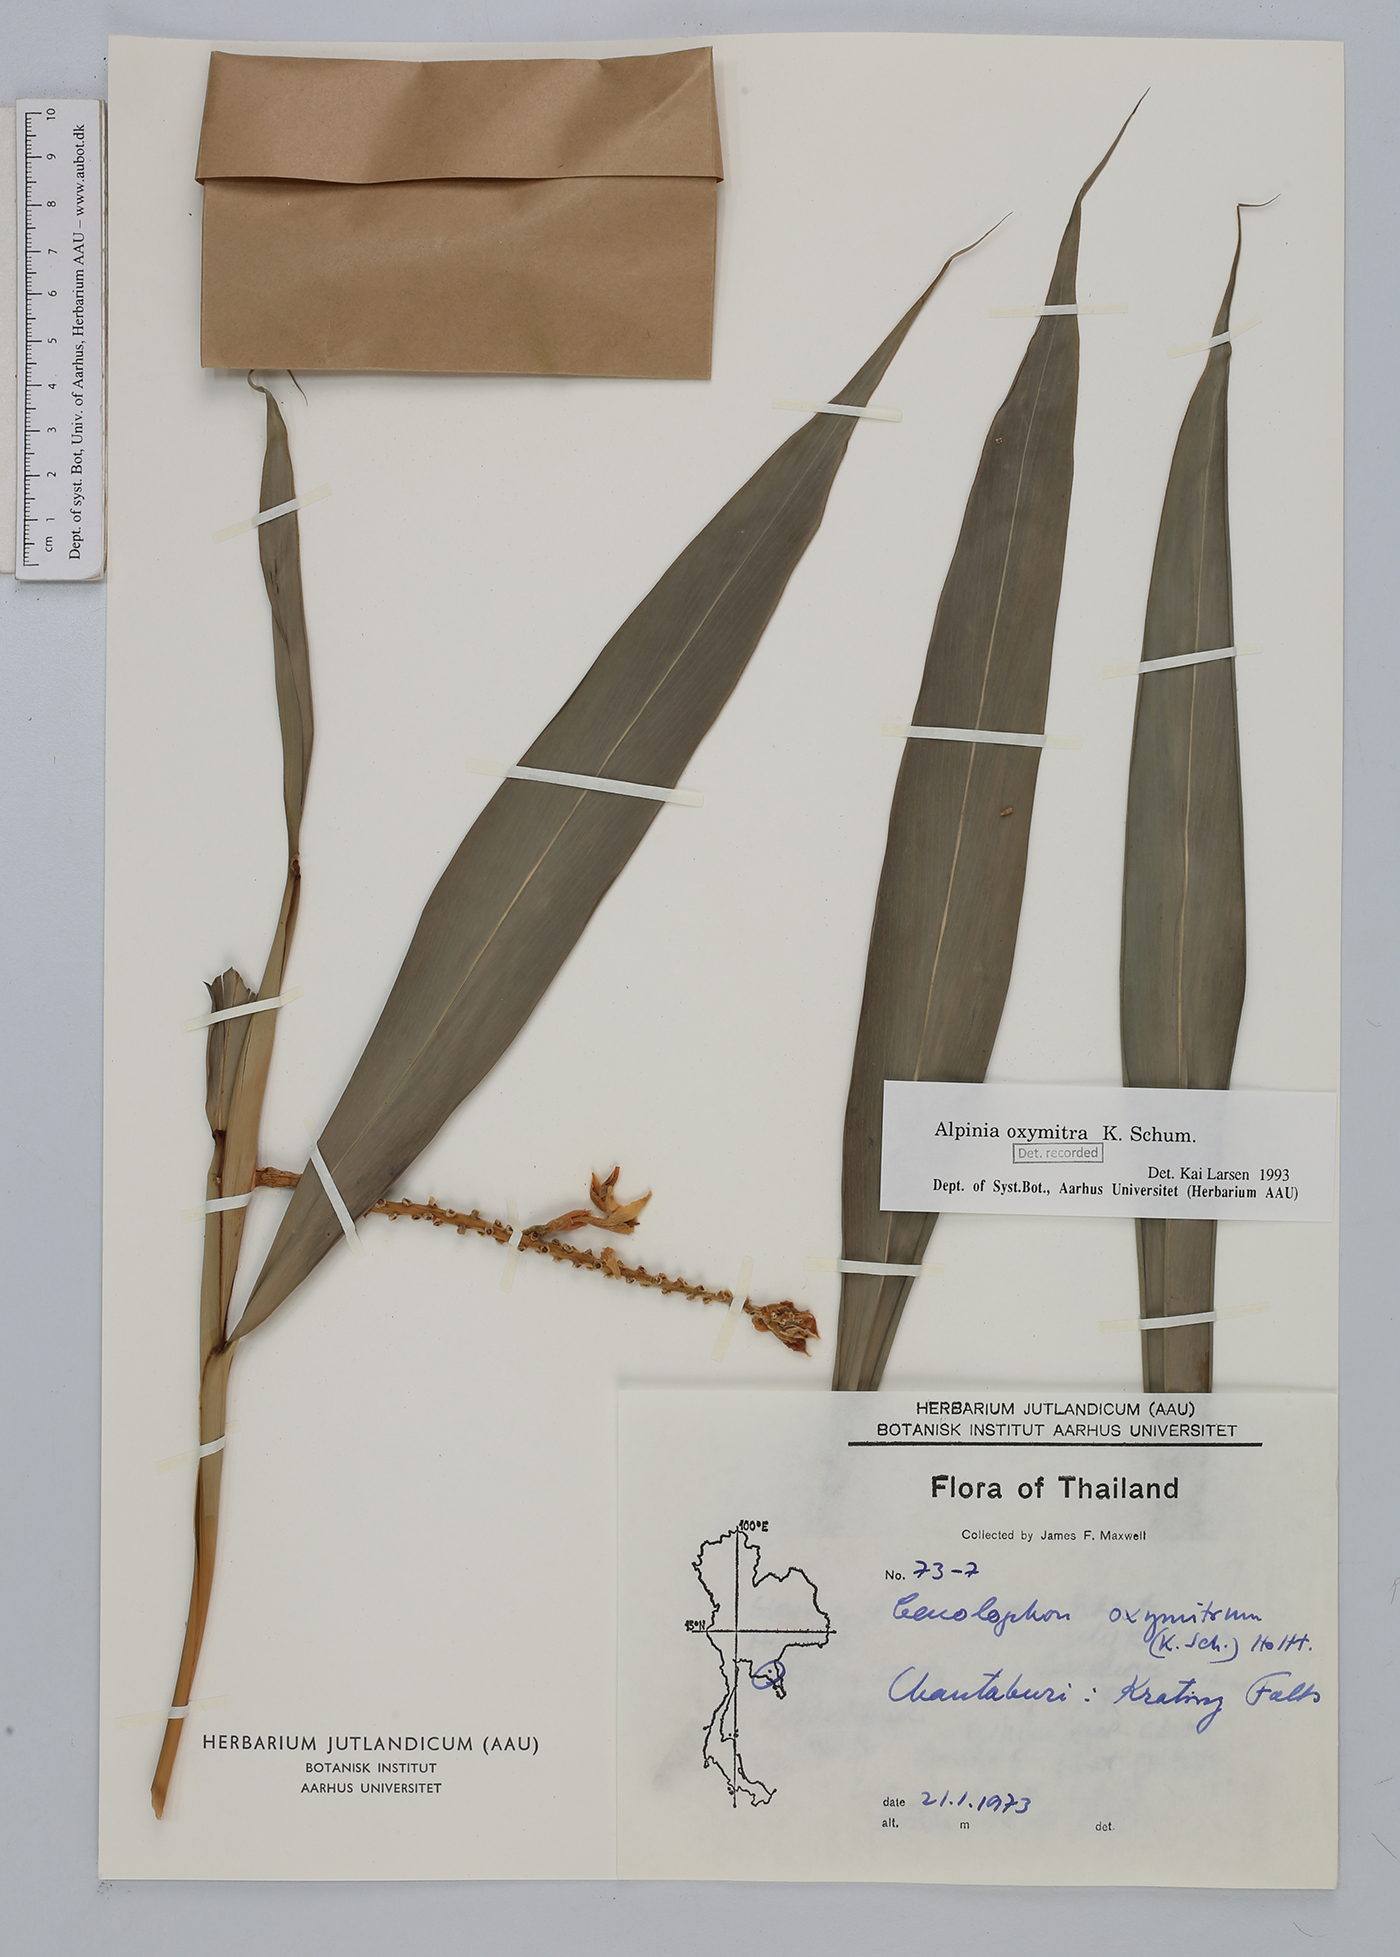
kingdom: Plantae
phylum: Tracheophyta
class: Liliopsida
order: Zingiberales
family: Zingiberaceae
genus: Alpinia
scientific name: Alpinia oxymitra
